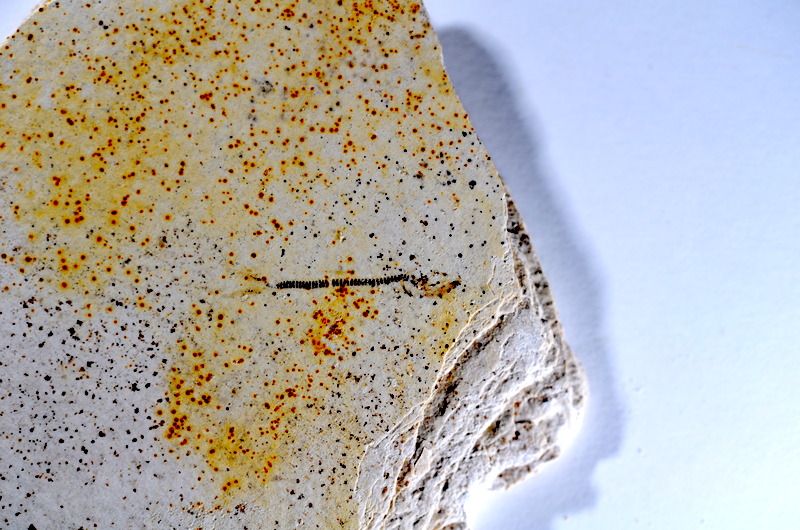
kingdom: Animalia
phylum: Chordata
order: Salmoniformes
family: Orthogonikleithridae
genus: Orthogonikleithrus
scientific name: Orthogonikleithrus hoelli
